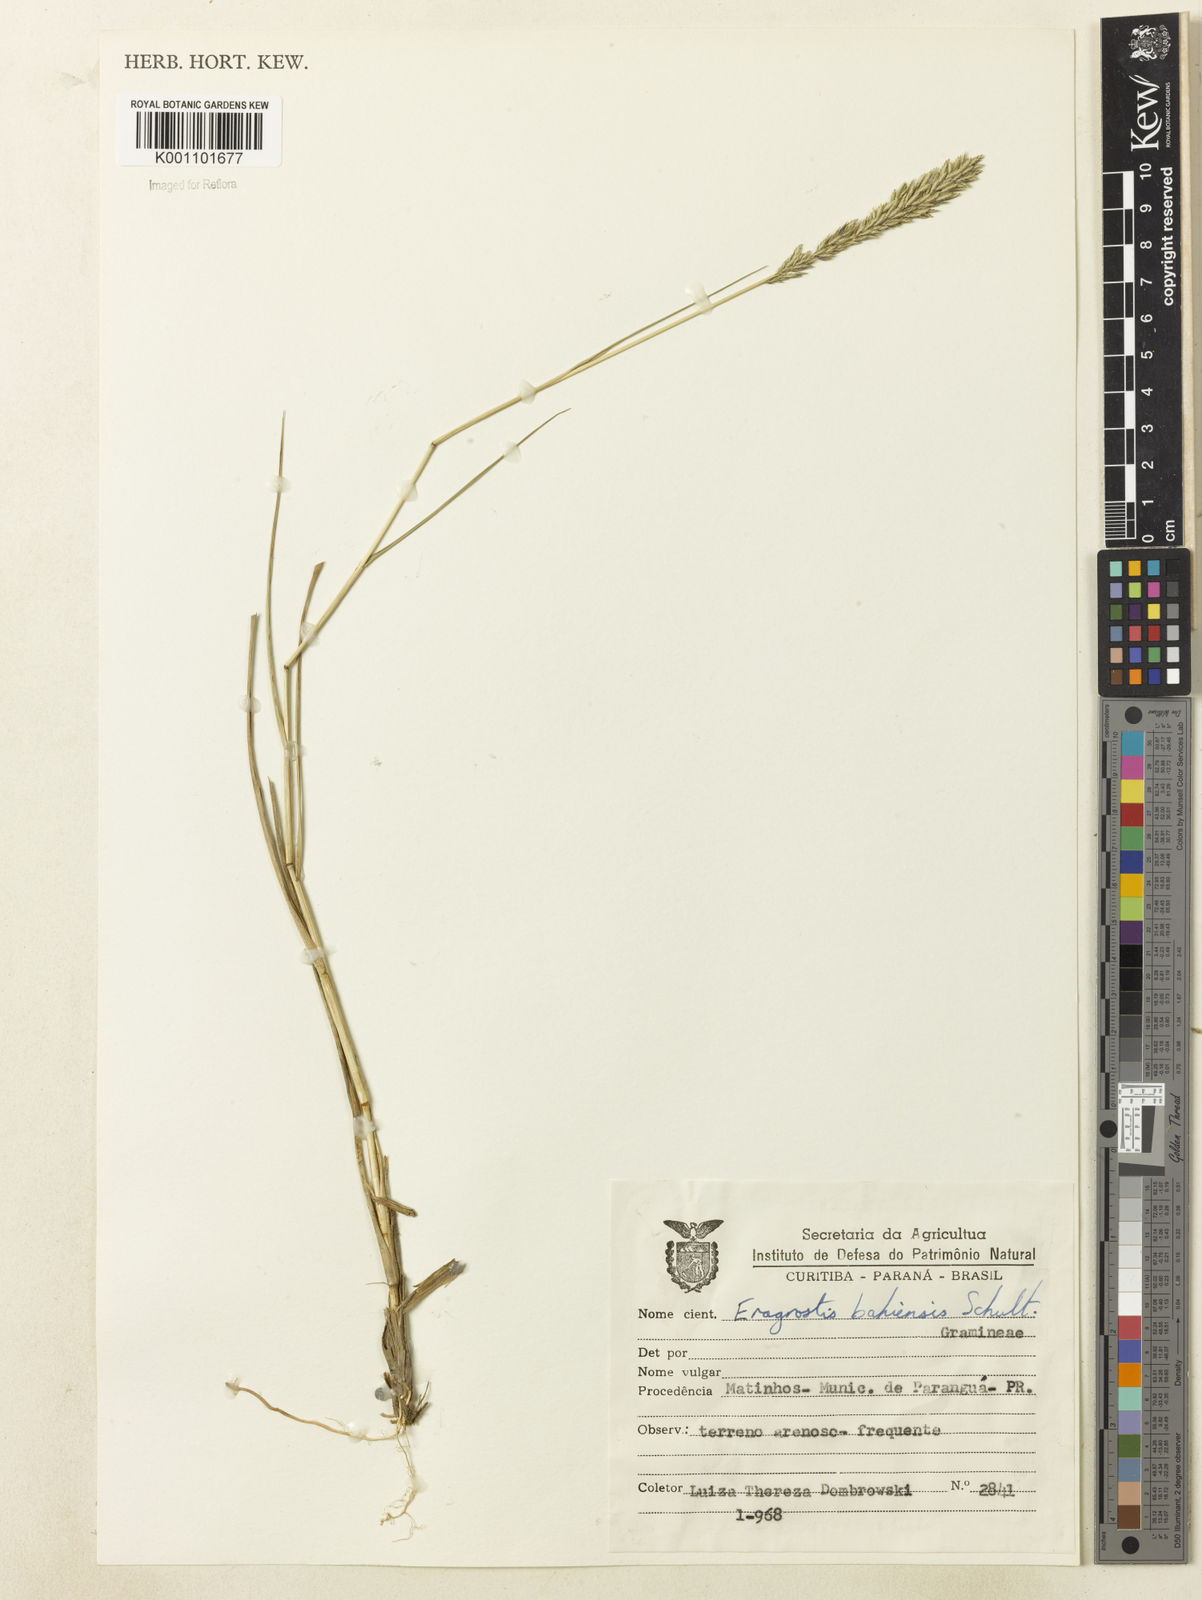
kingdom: Plantae
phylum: Tracheophyta
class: Liliopsida
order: Poales
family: Poaceae
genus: Eragrostis
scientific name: Eragrostis cataclasta
